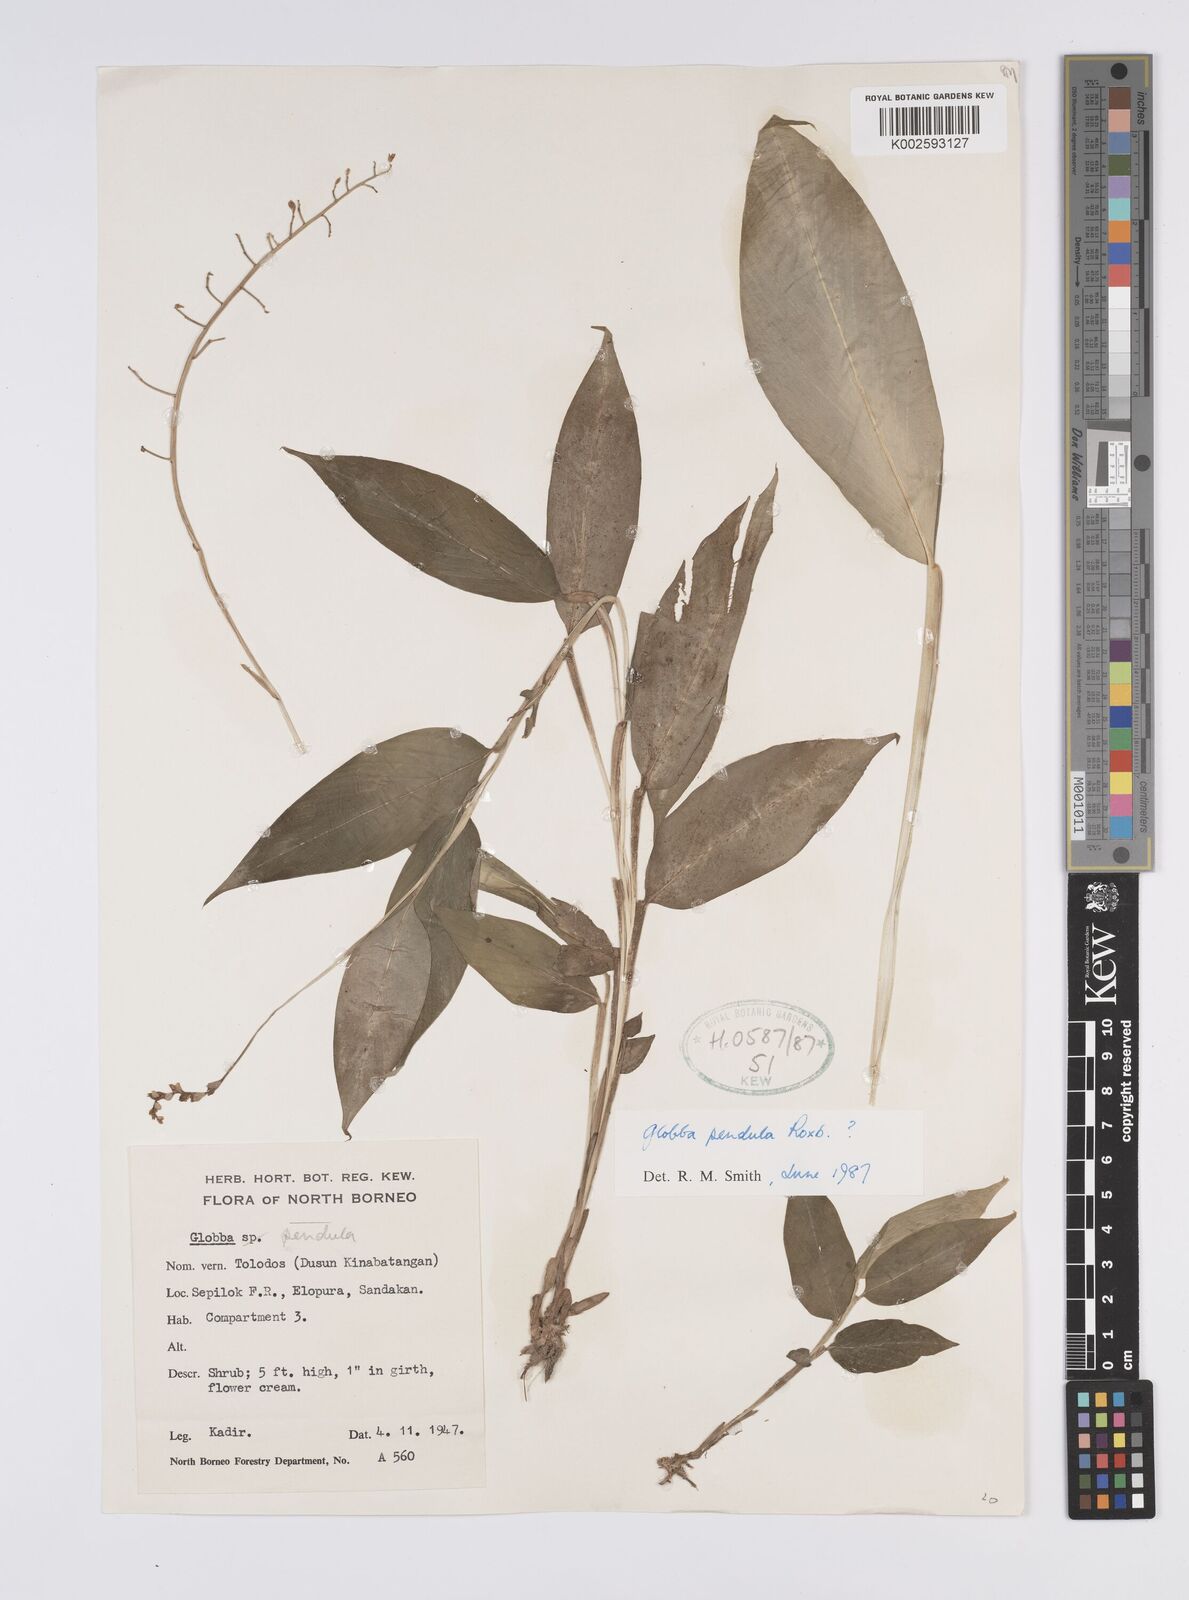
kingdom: Plantae
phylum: Tracheophyta
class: Liliopsida
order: Zingiberales
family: Zingiberaceae
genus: Globba
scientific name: Globba pendula
